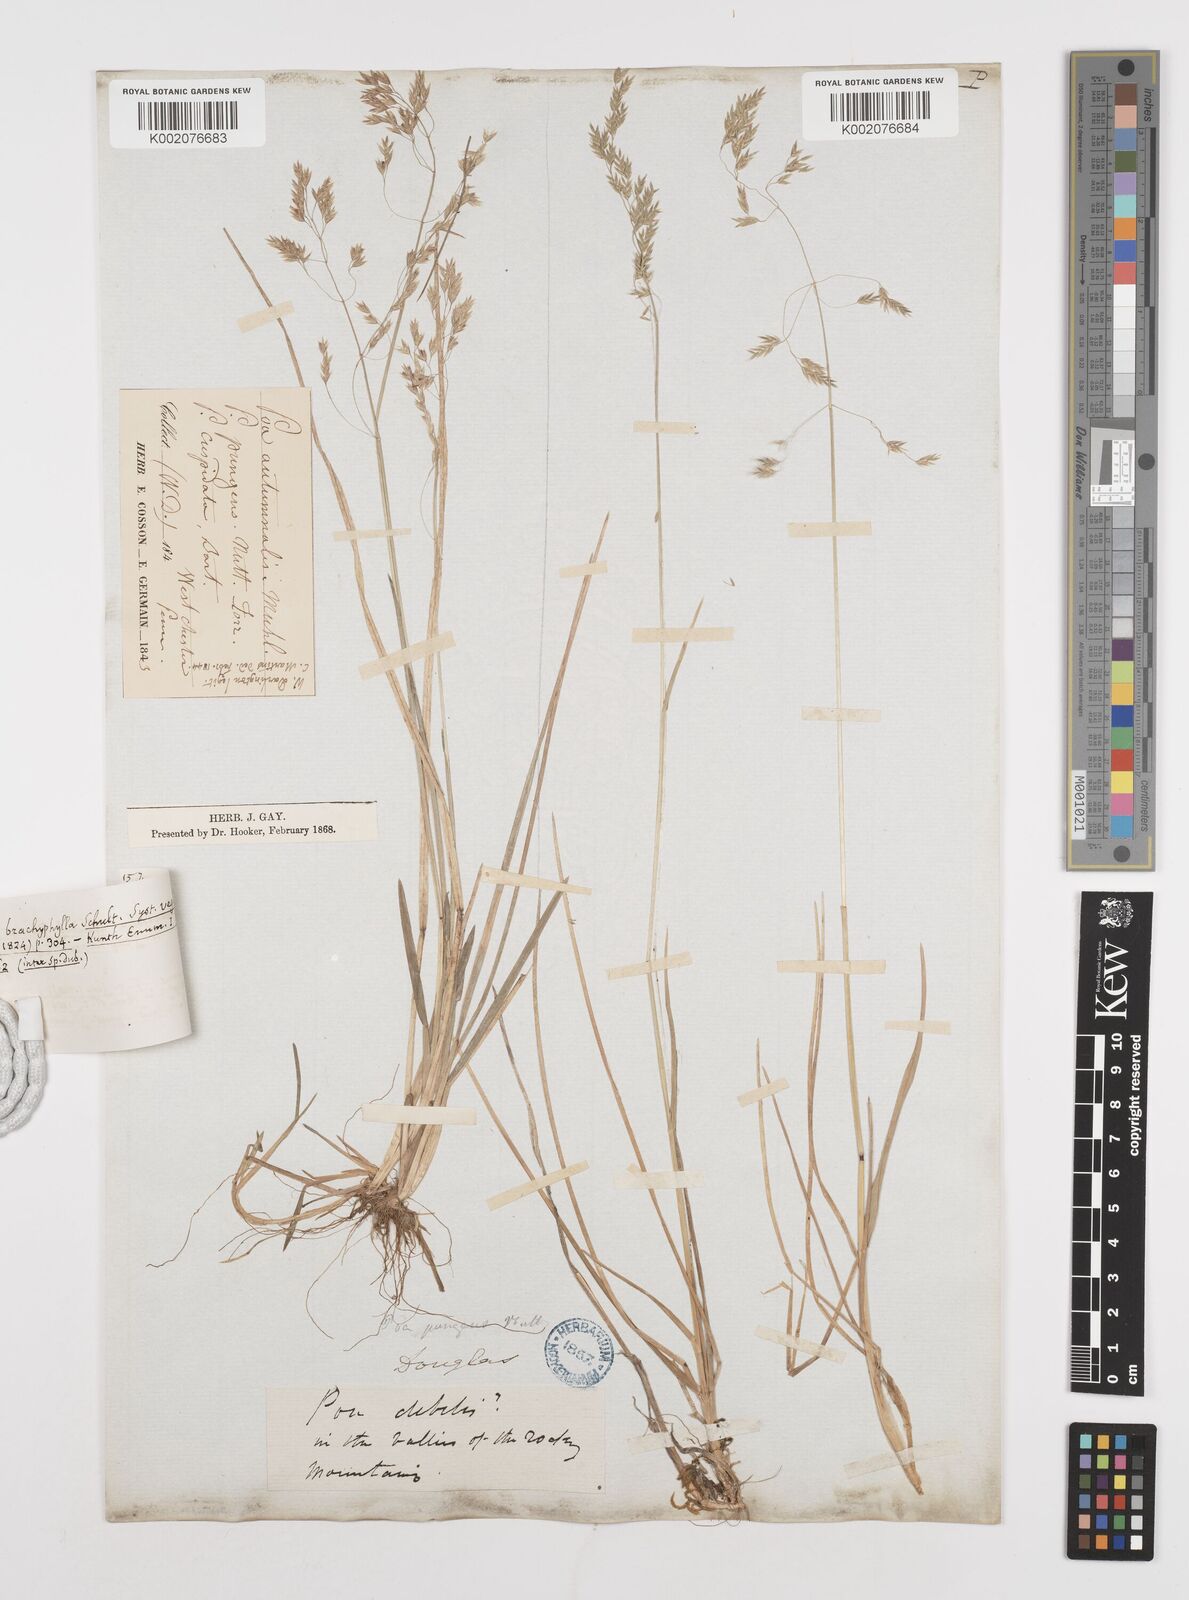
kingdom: Plantae
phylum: Tracheophyta
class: Liliopsida
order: Poales
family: Poaceae
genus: Poa
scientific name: Poa cuspidata
